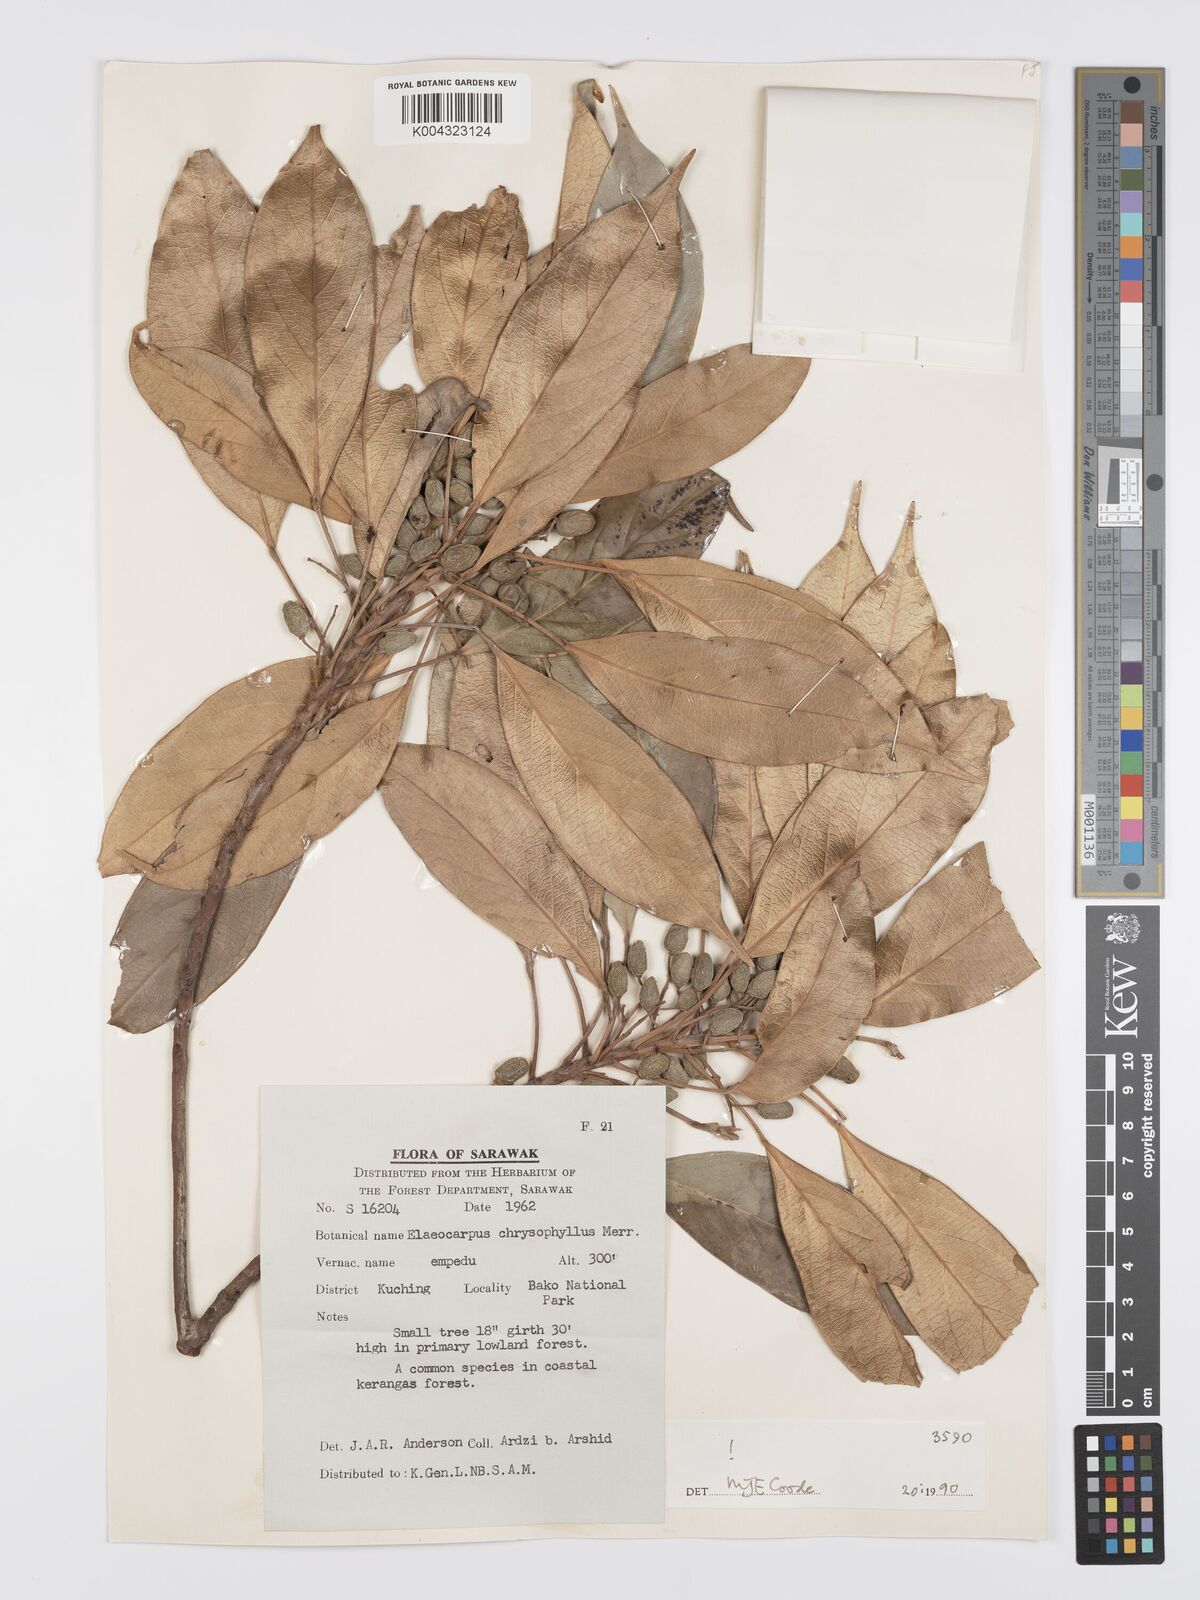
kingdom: Plantae
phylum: Tracheophyta
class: Magnoliopsida
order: Oxalidales
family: Elaeocarpaceae
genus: Elaeocarpus
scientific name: Elaeocarpus chrysophyllus
